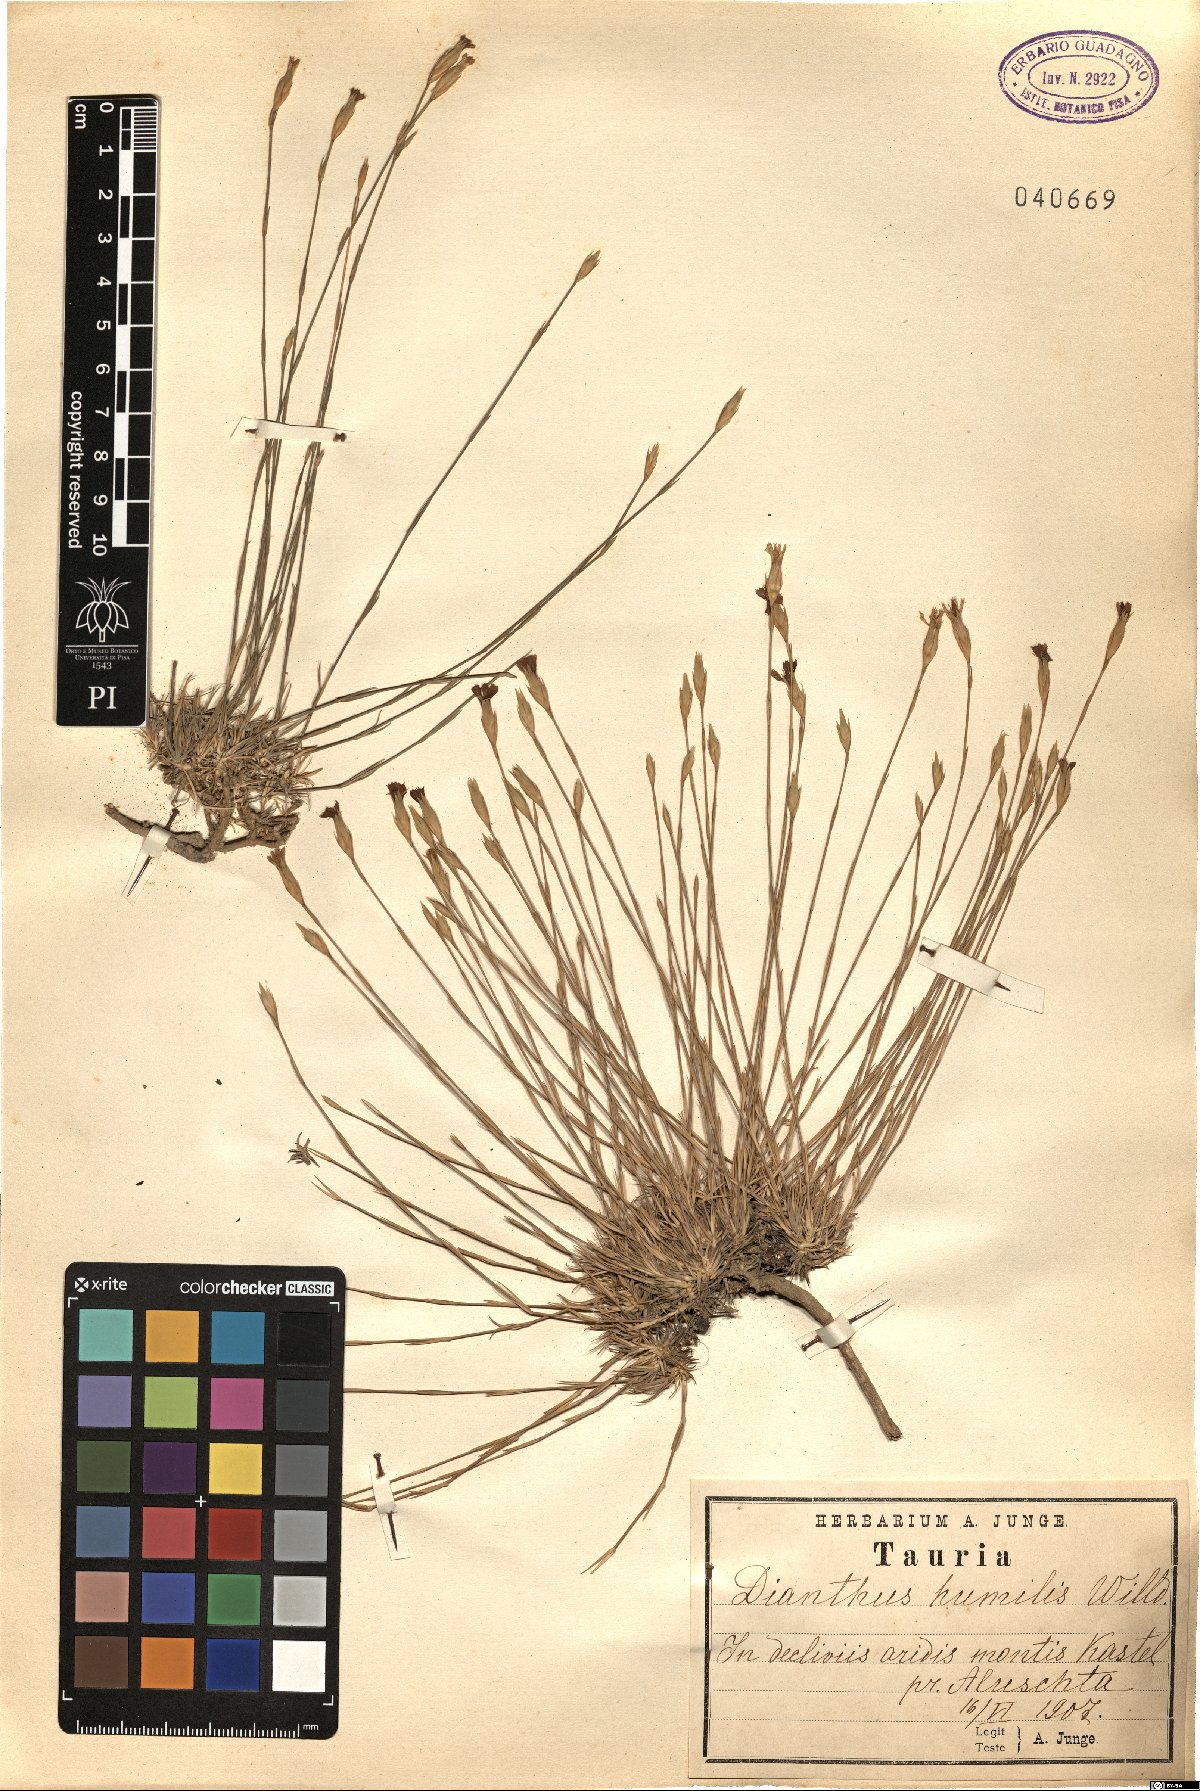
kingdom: Plantae
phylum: Tracheophyta
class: Magnoliopsida
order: Caryophyllales
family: Caryophyllaceae
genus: Dianthus
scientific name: Dianthus humilis
